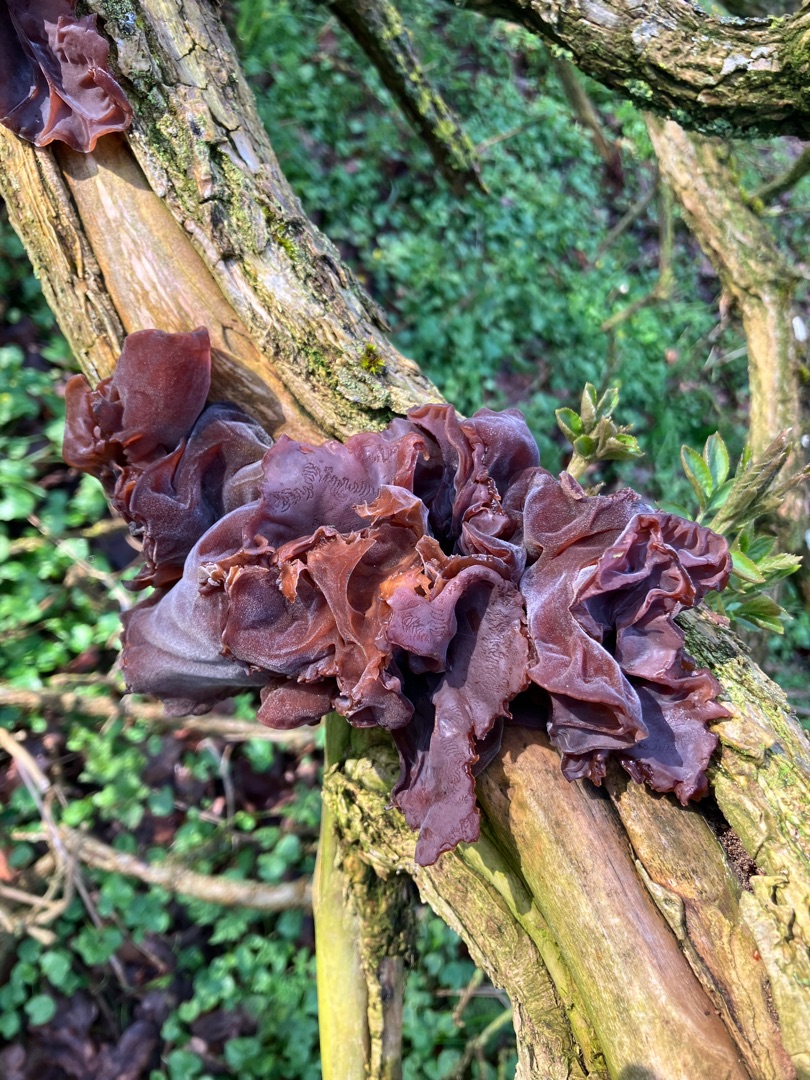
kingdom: Fungi
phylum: Basidiomycota
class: Agaricomycetes
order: Auriculariales
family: Auriculariaceae
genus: Auricularia
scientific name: Auricularia auricula-judae
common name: Almindelig judasøre
